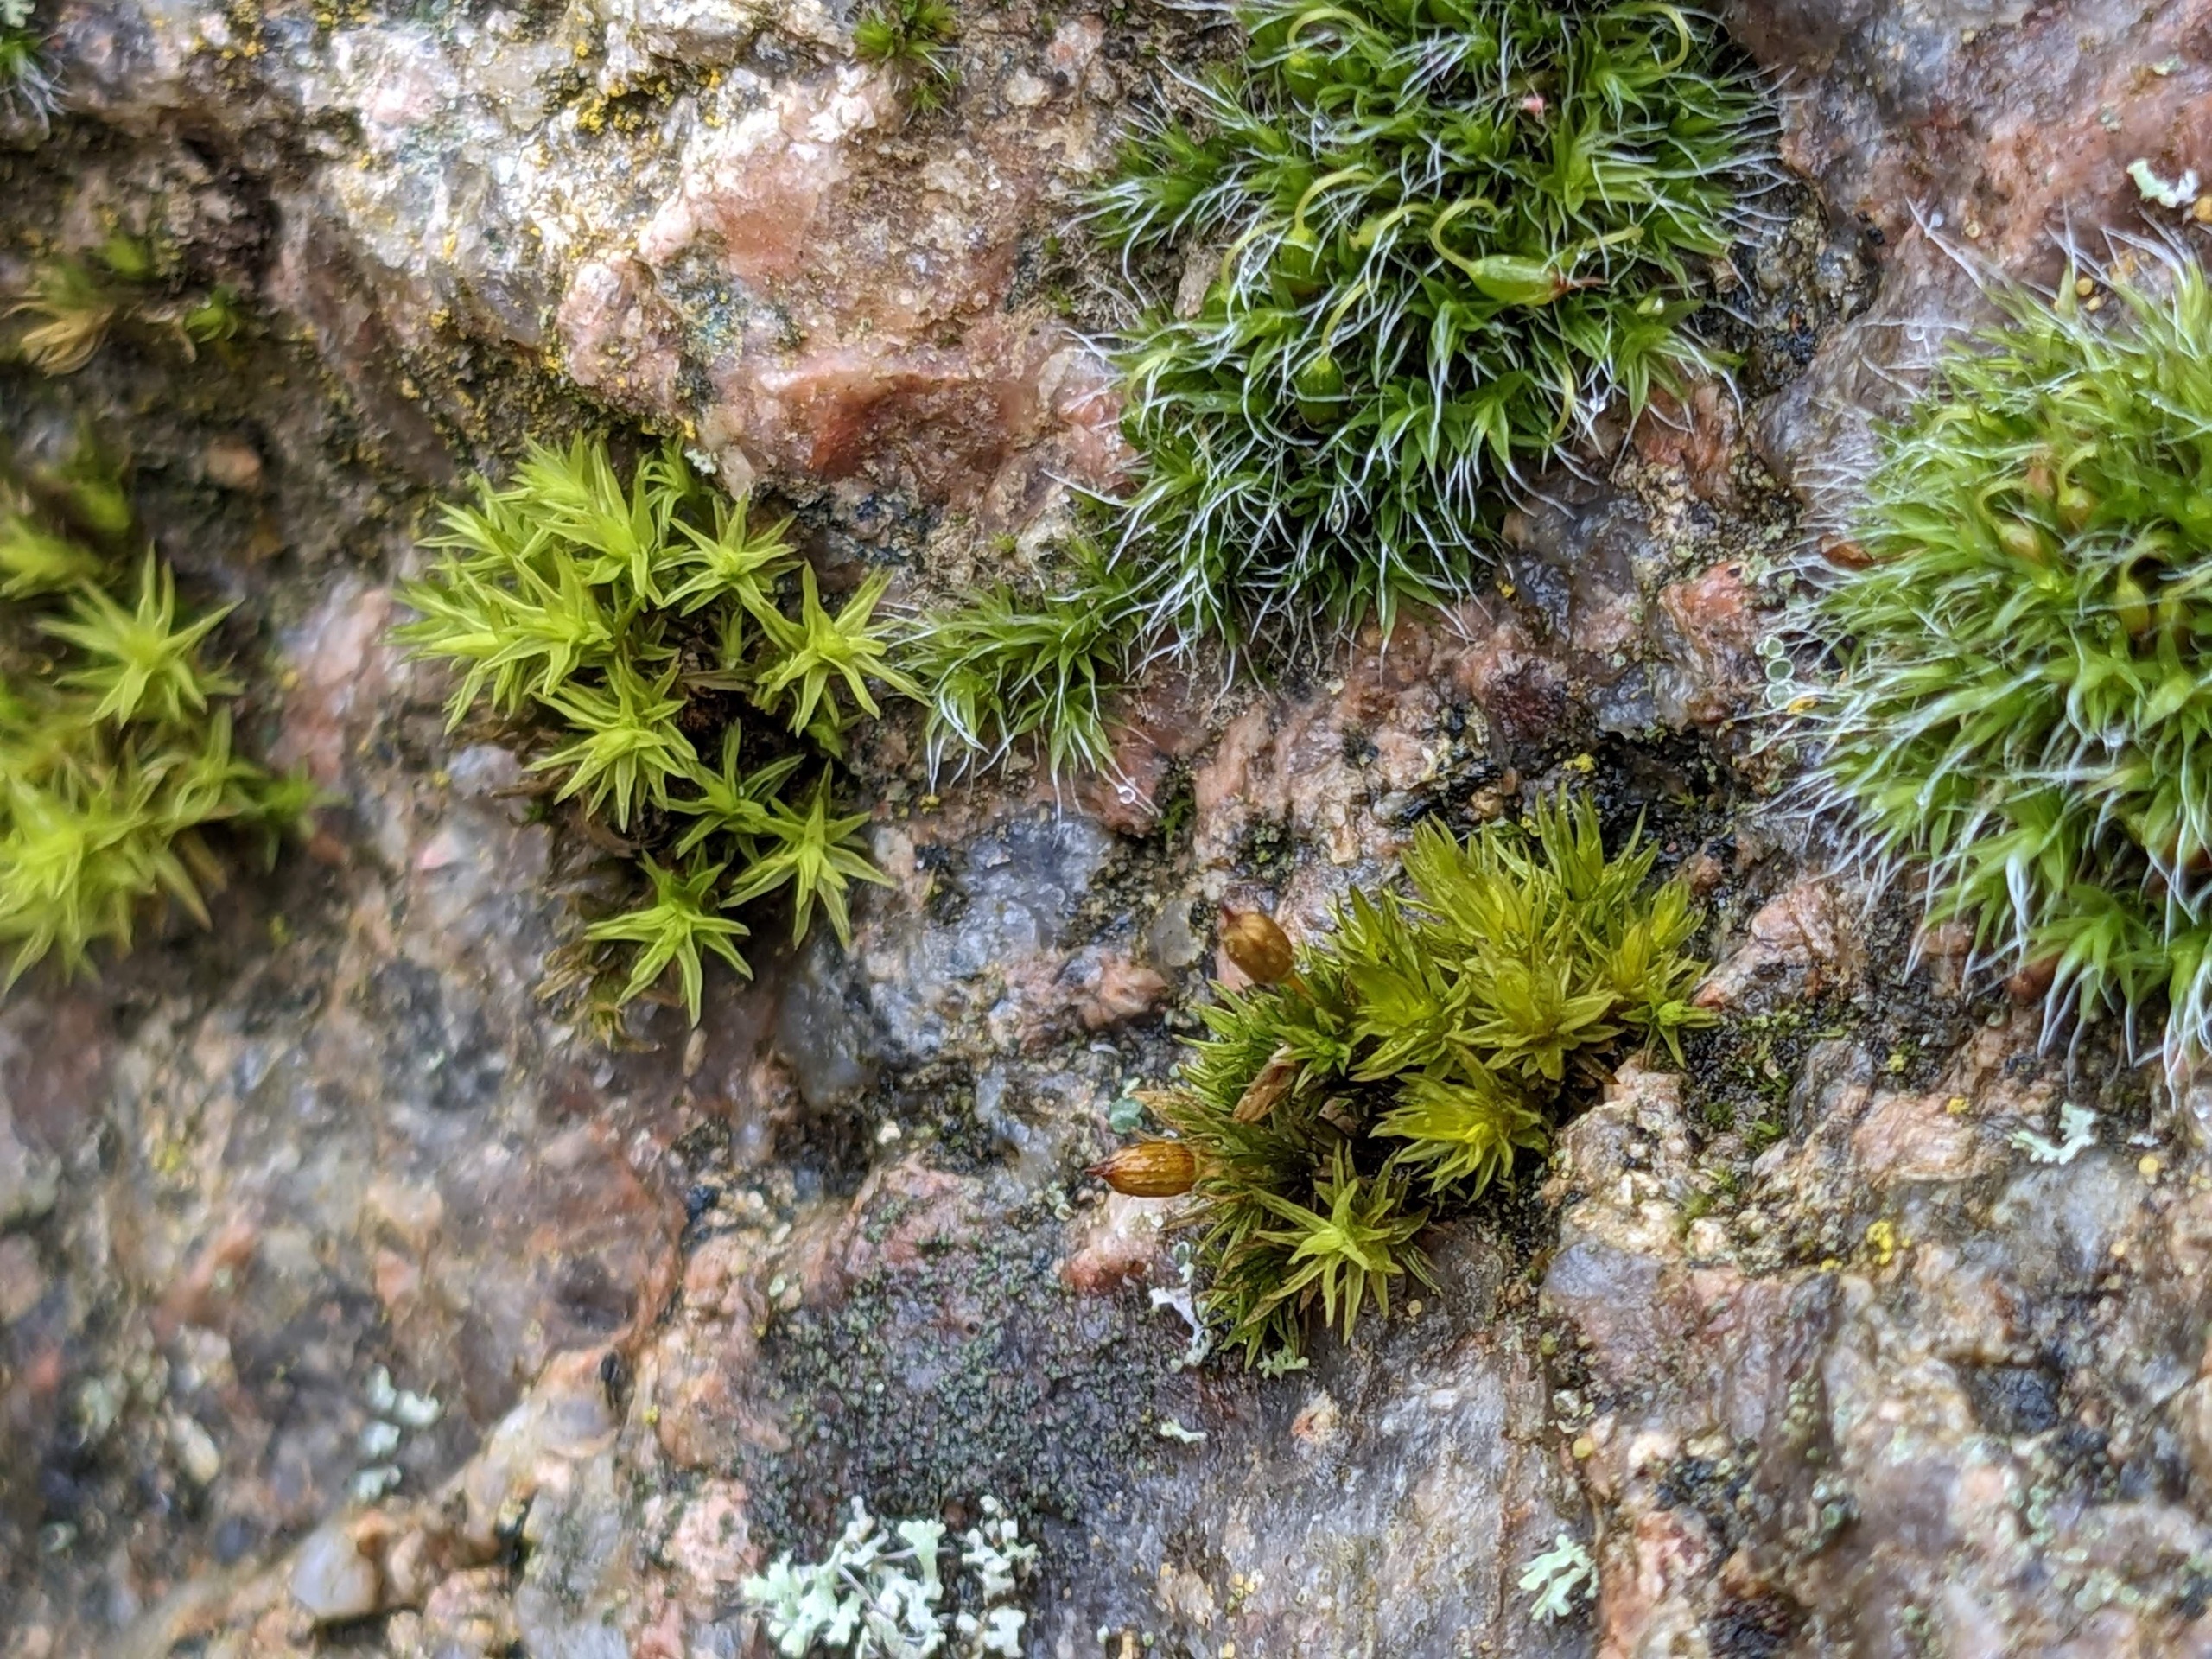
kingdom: Plantae
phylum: Bryophyta
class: Bryopsida
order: Orthotrichales
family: Orthotrichaceae
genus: Orthotrichum
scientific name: Orthotrichum anomalum
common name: Mørk furehætte
